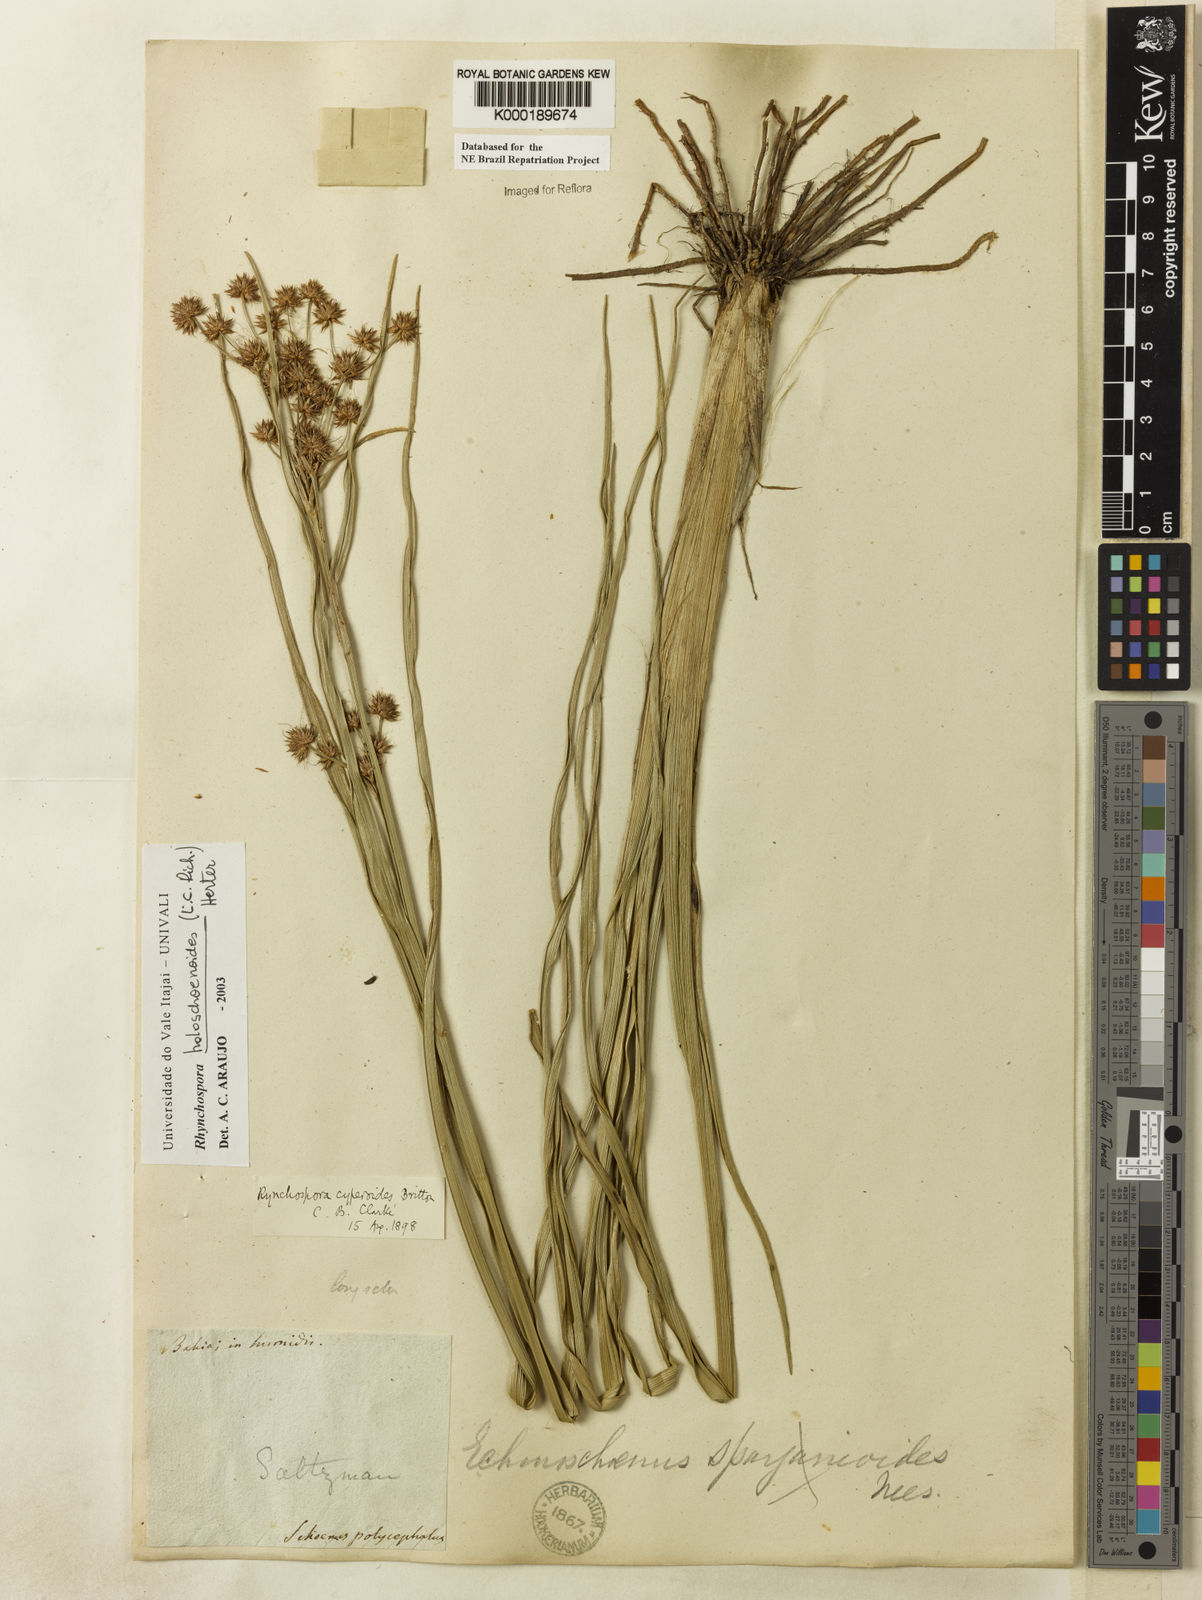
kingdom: Plantae
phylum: Tracheophyta
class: Liliopsida
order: Poales
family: Cyperaceae
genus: Rhynchospora
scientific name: Rhynchospora holoschoenoides
